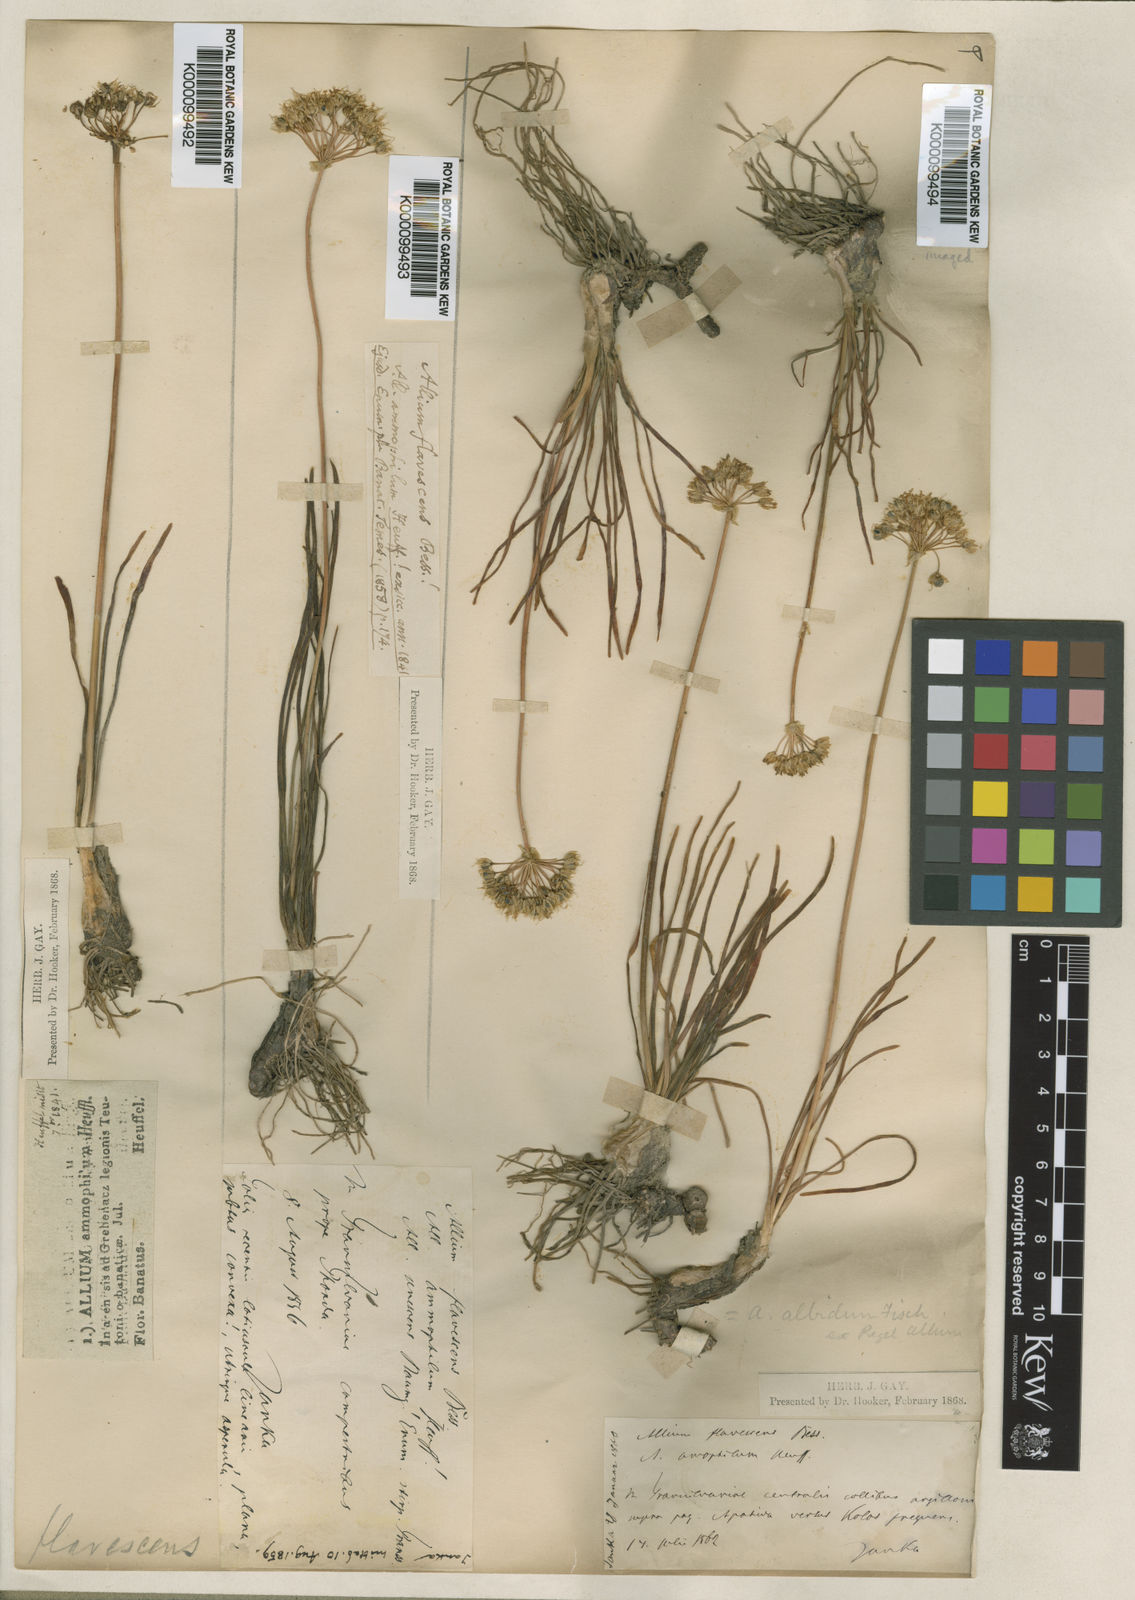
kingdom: Plantae
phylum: Tracheophyta
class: Liliopsida
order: Asparagales
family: Amaryllidaceae
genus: Allium
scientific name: Allium flavescens
